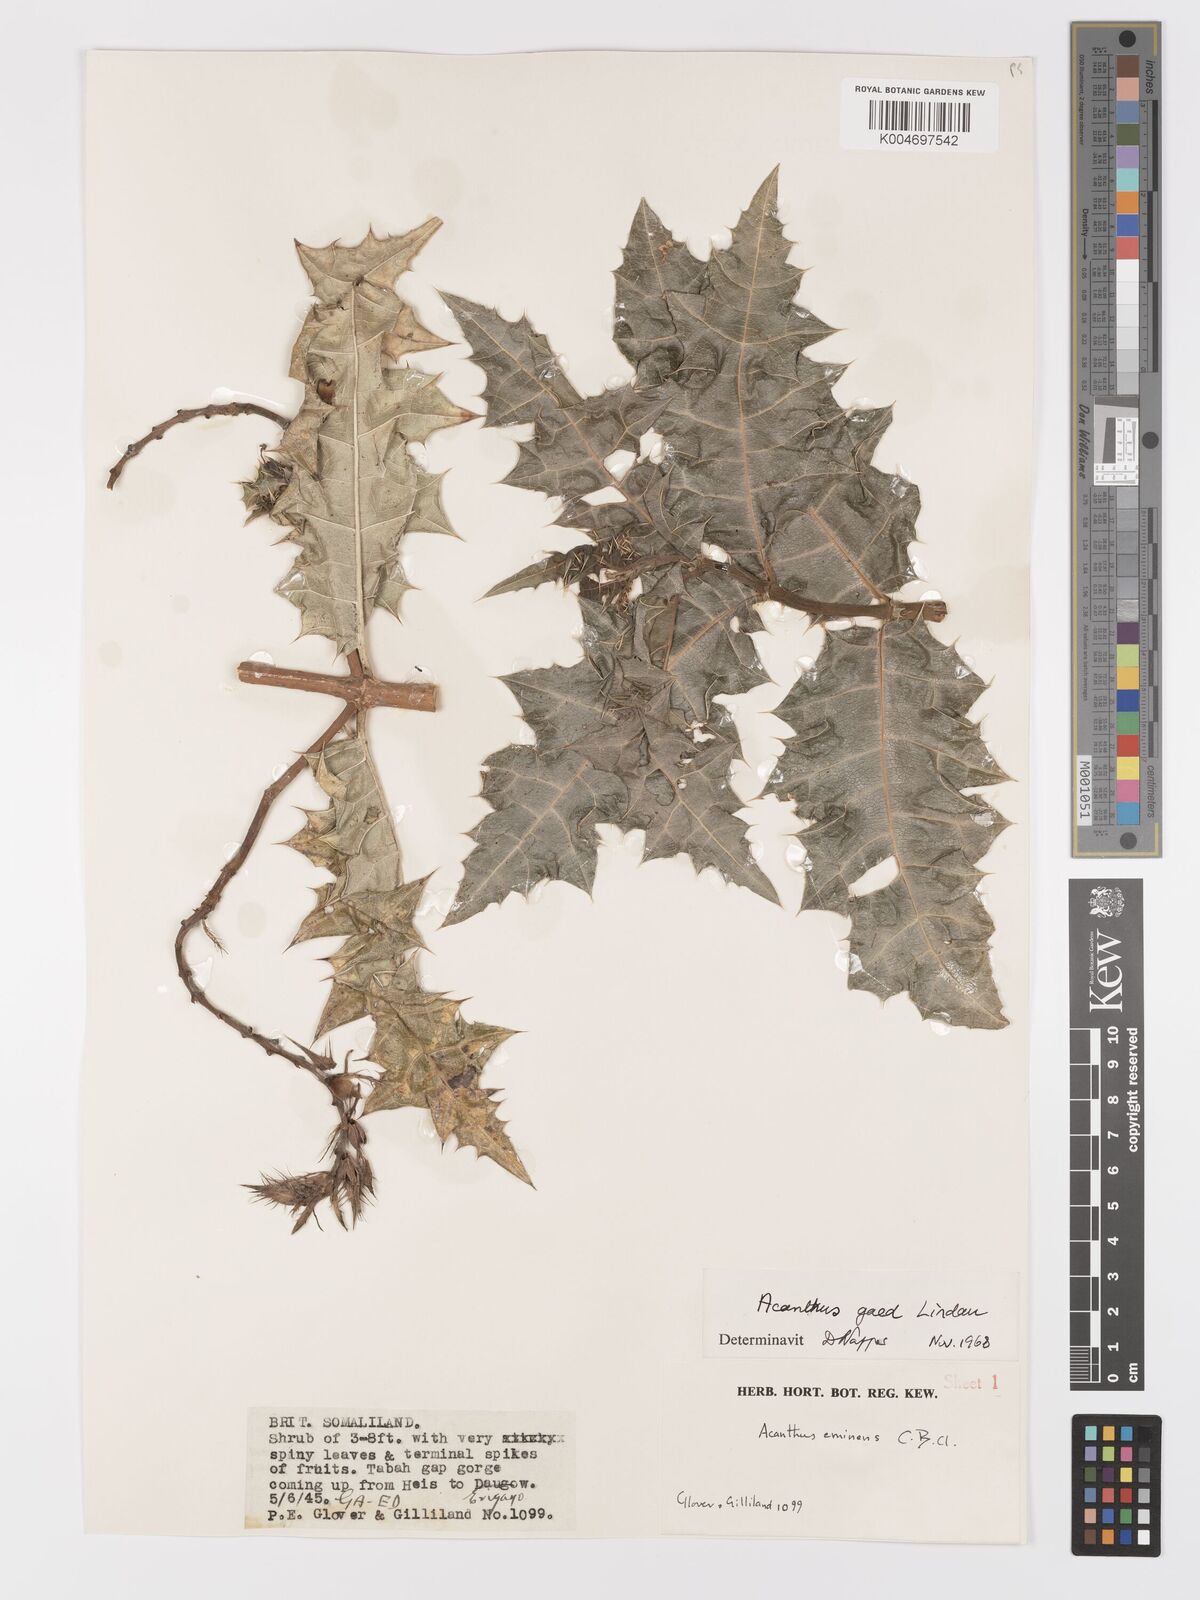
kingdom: Plantae
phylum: Tracheophyta
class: Magnoliopsida
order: Lamiales
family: Acanthaceae
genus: Acanthus
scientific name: Acanthus gaed
